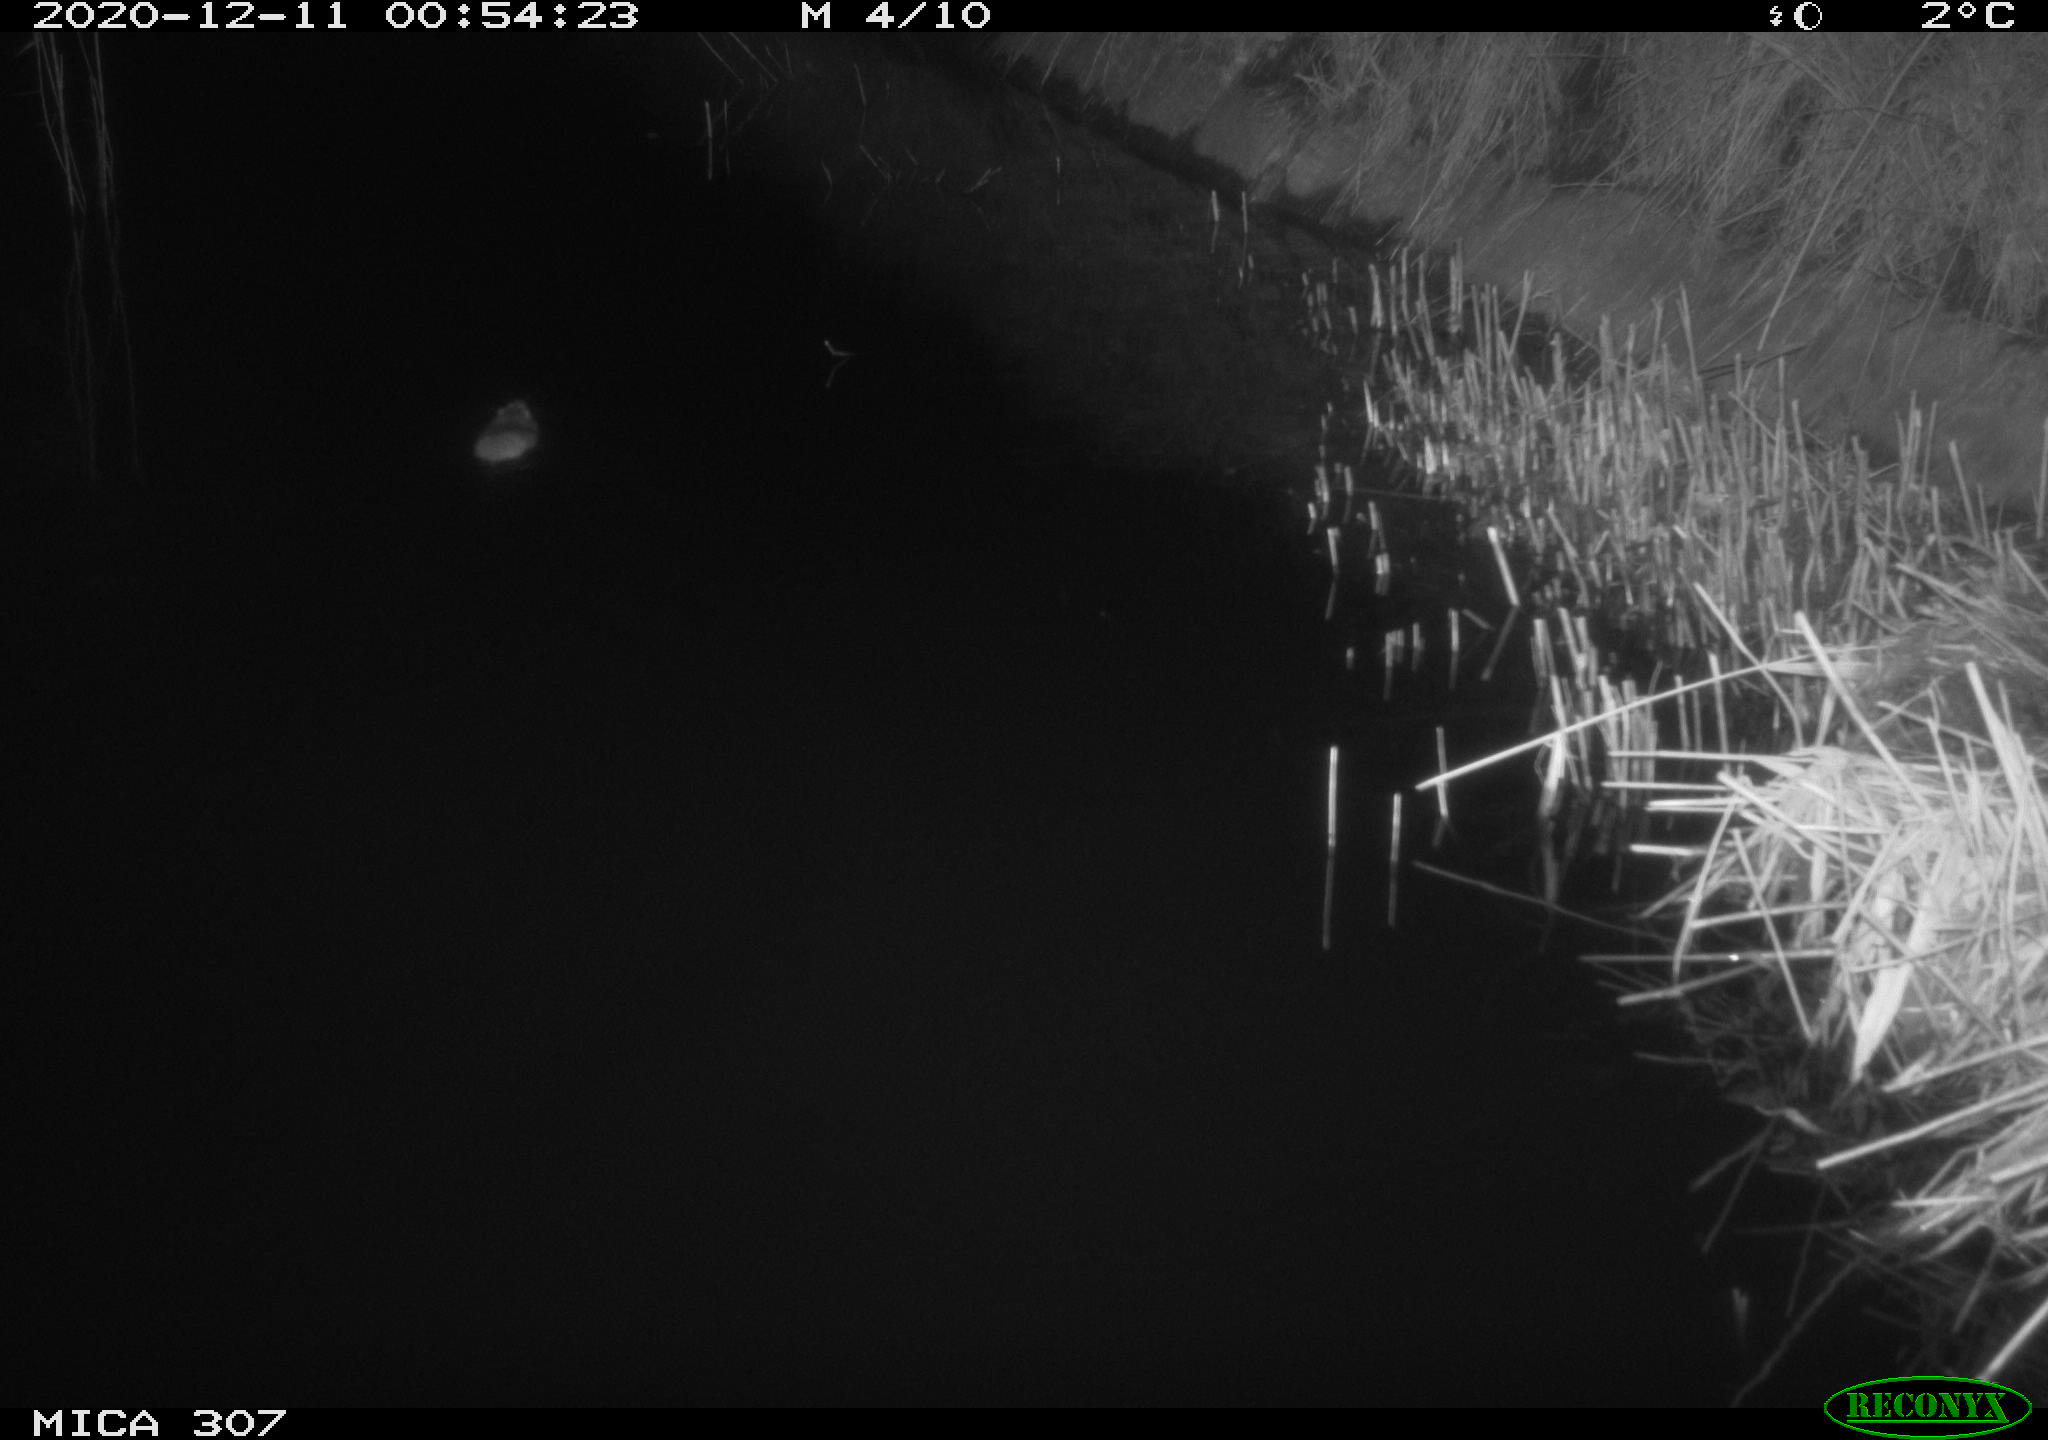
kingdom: Animalia
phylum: Chordata
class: Mammalia
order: Rodentia
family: Muridae
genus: Rattus
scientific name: Rattus norvegicus
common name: Brown rat
